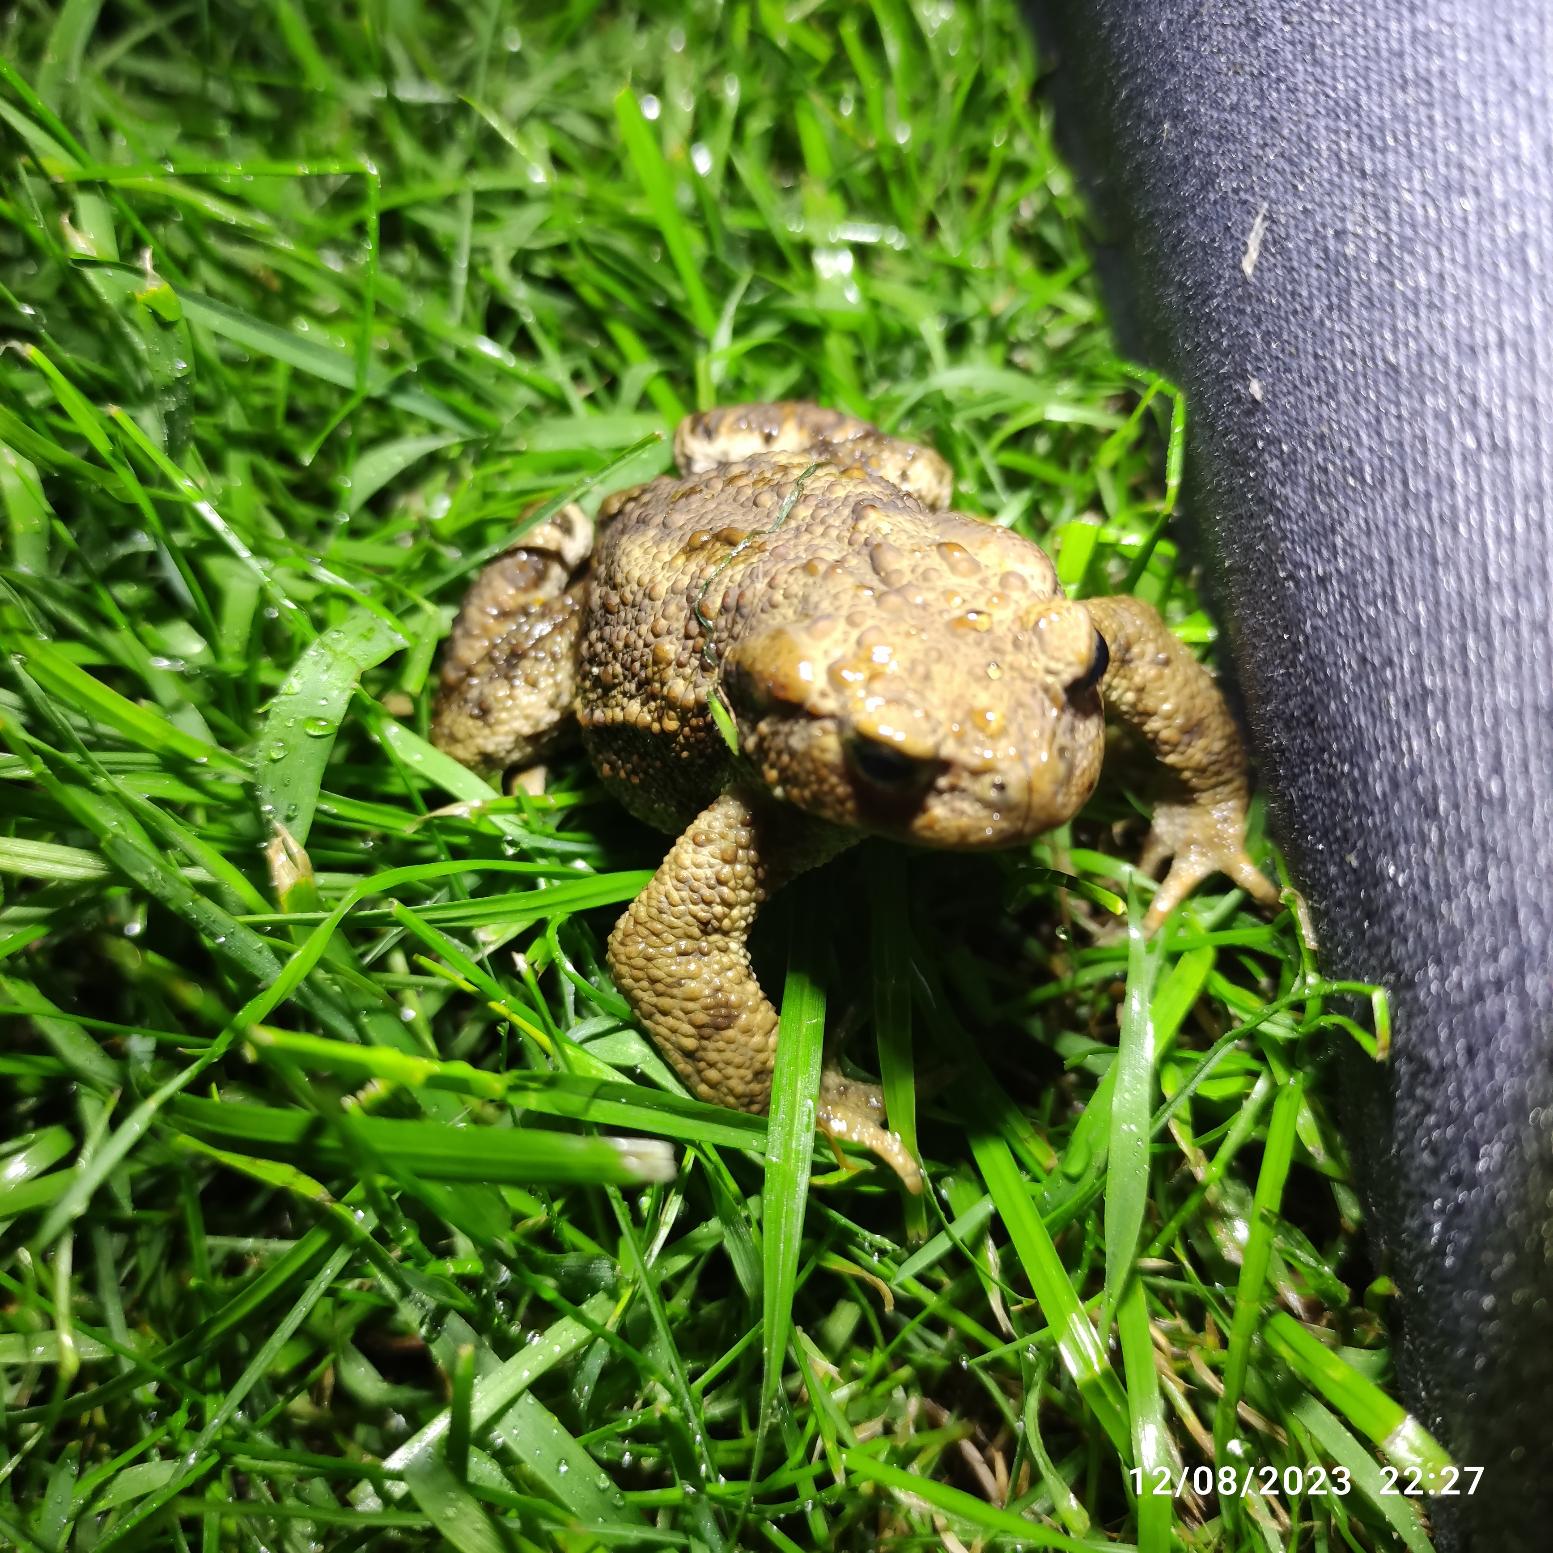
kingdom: Animalia
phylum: Chordata
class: Amphibia
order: Anura
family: Bufonidae
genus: Bufo
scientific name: Bufo bufo
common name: Skrubtudse
